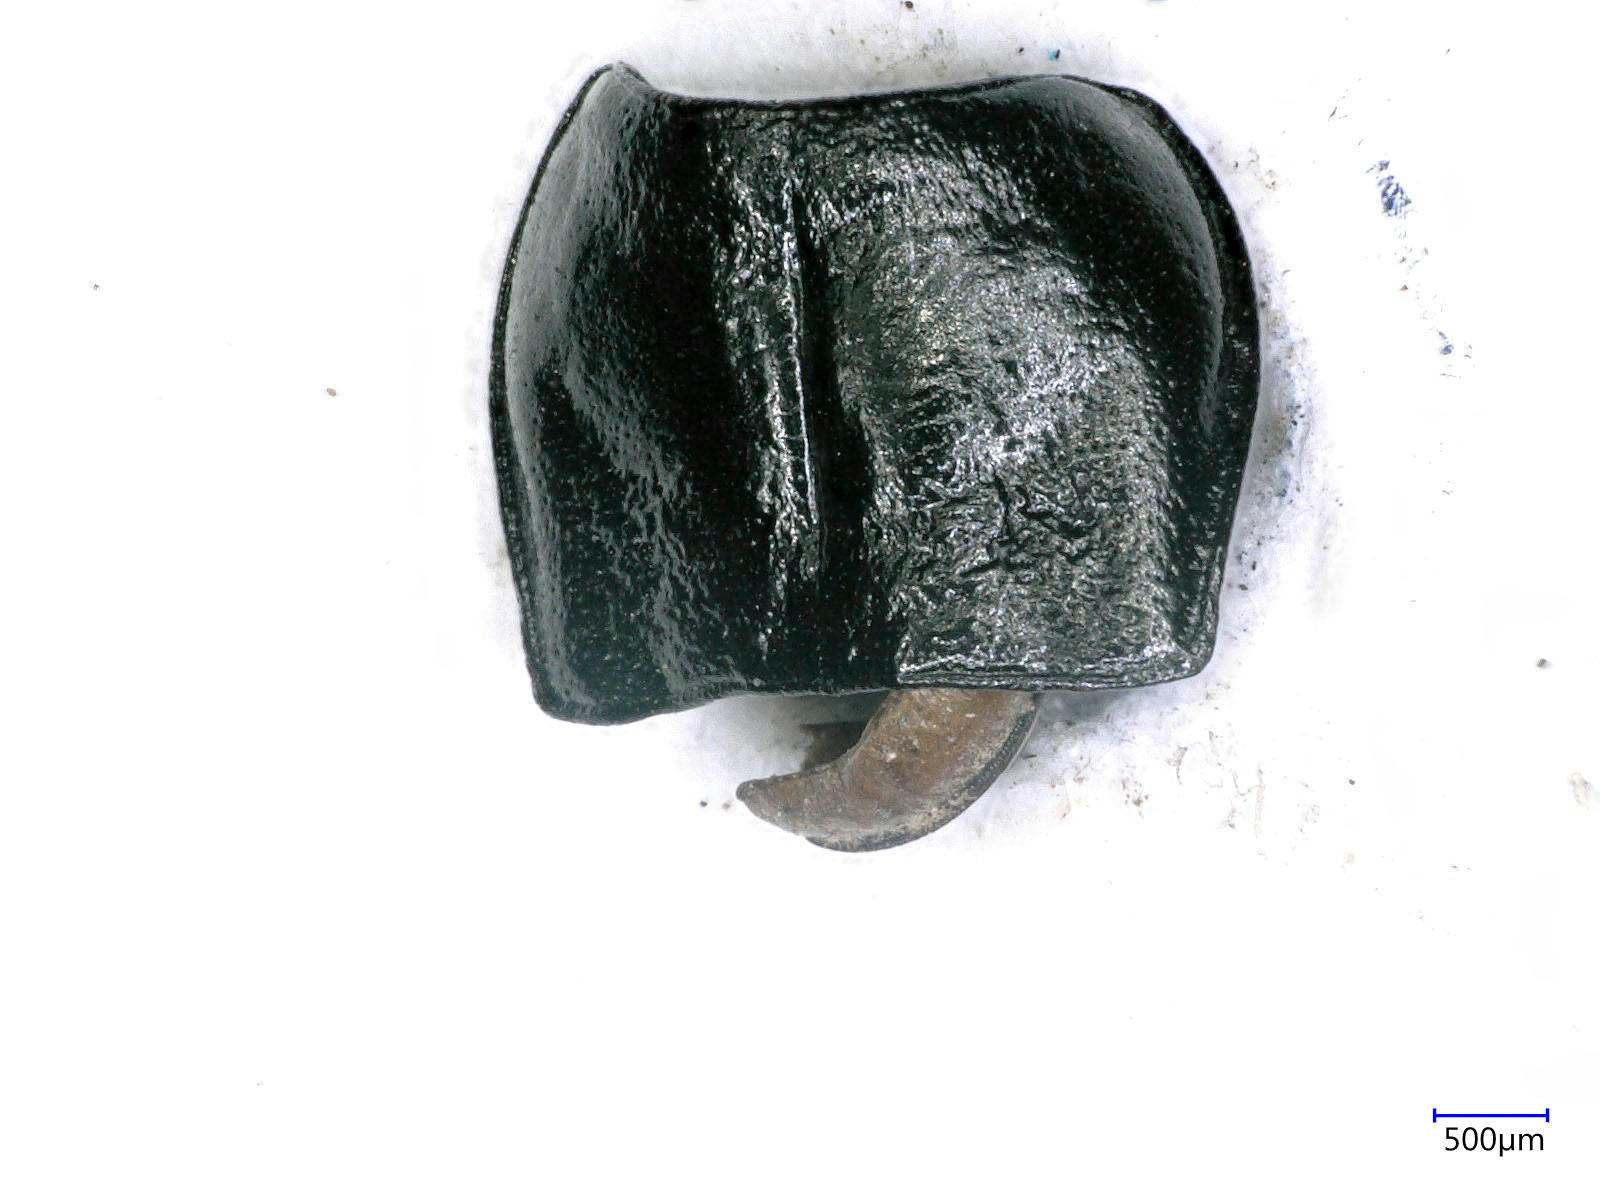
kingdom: Animalia
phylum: Arthropoda
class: Insecta
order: Coleoptera
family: Carabidae
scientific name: Carabidae
